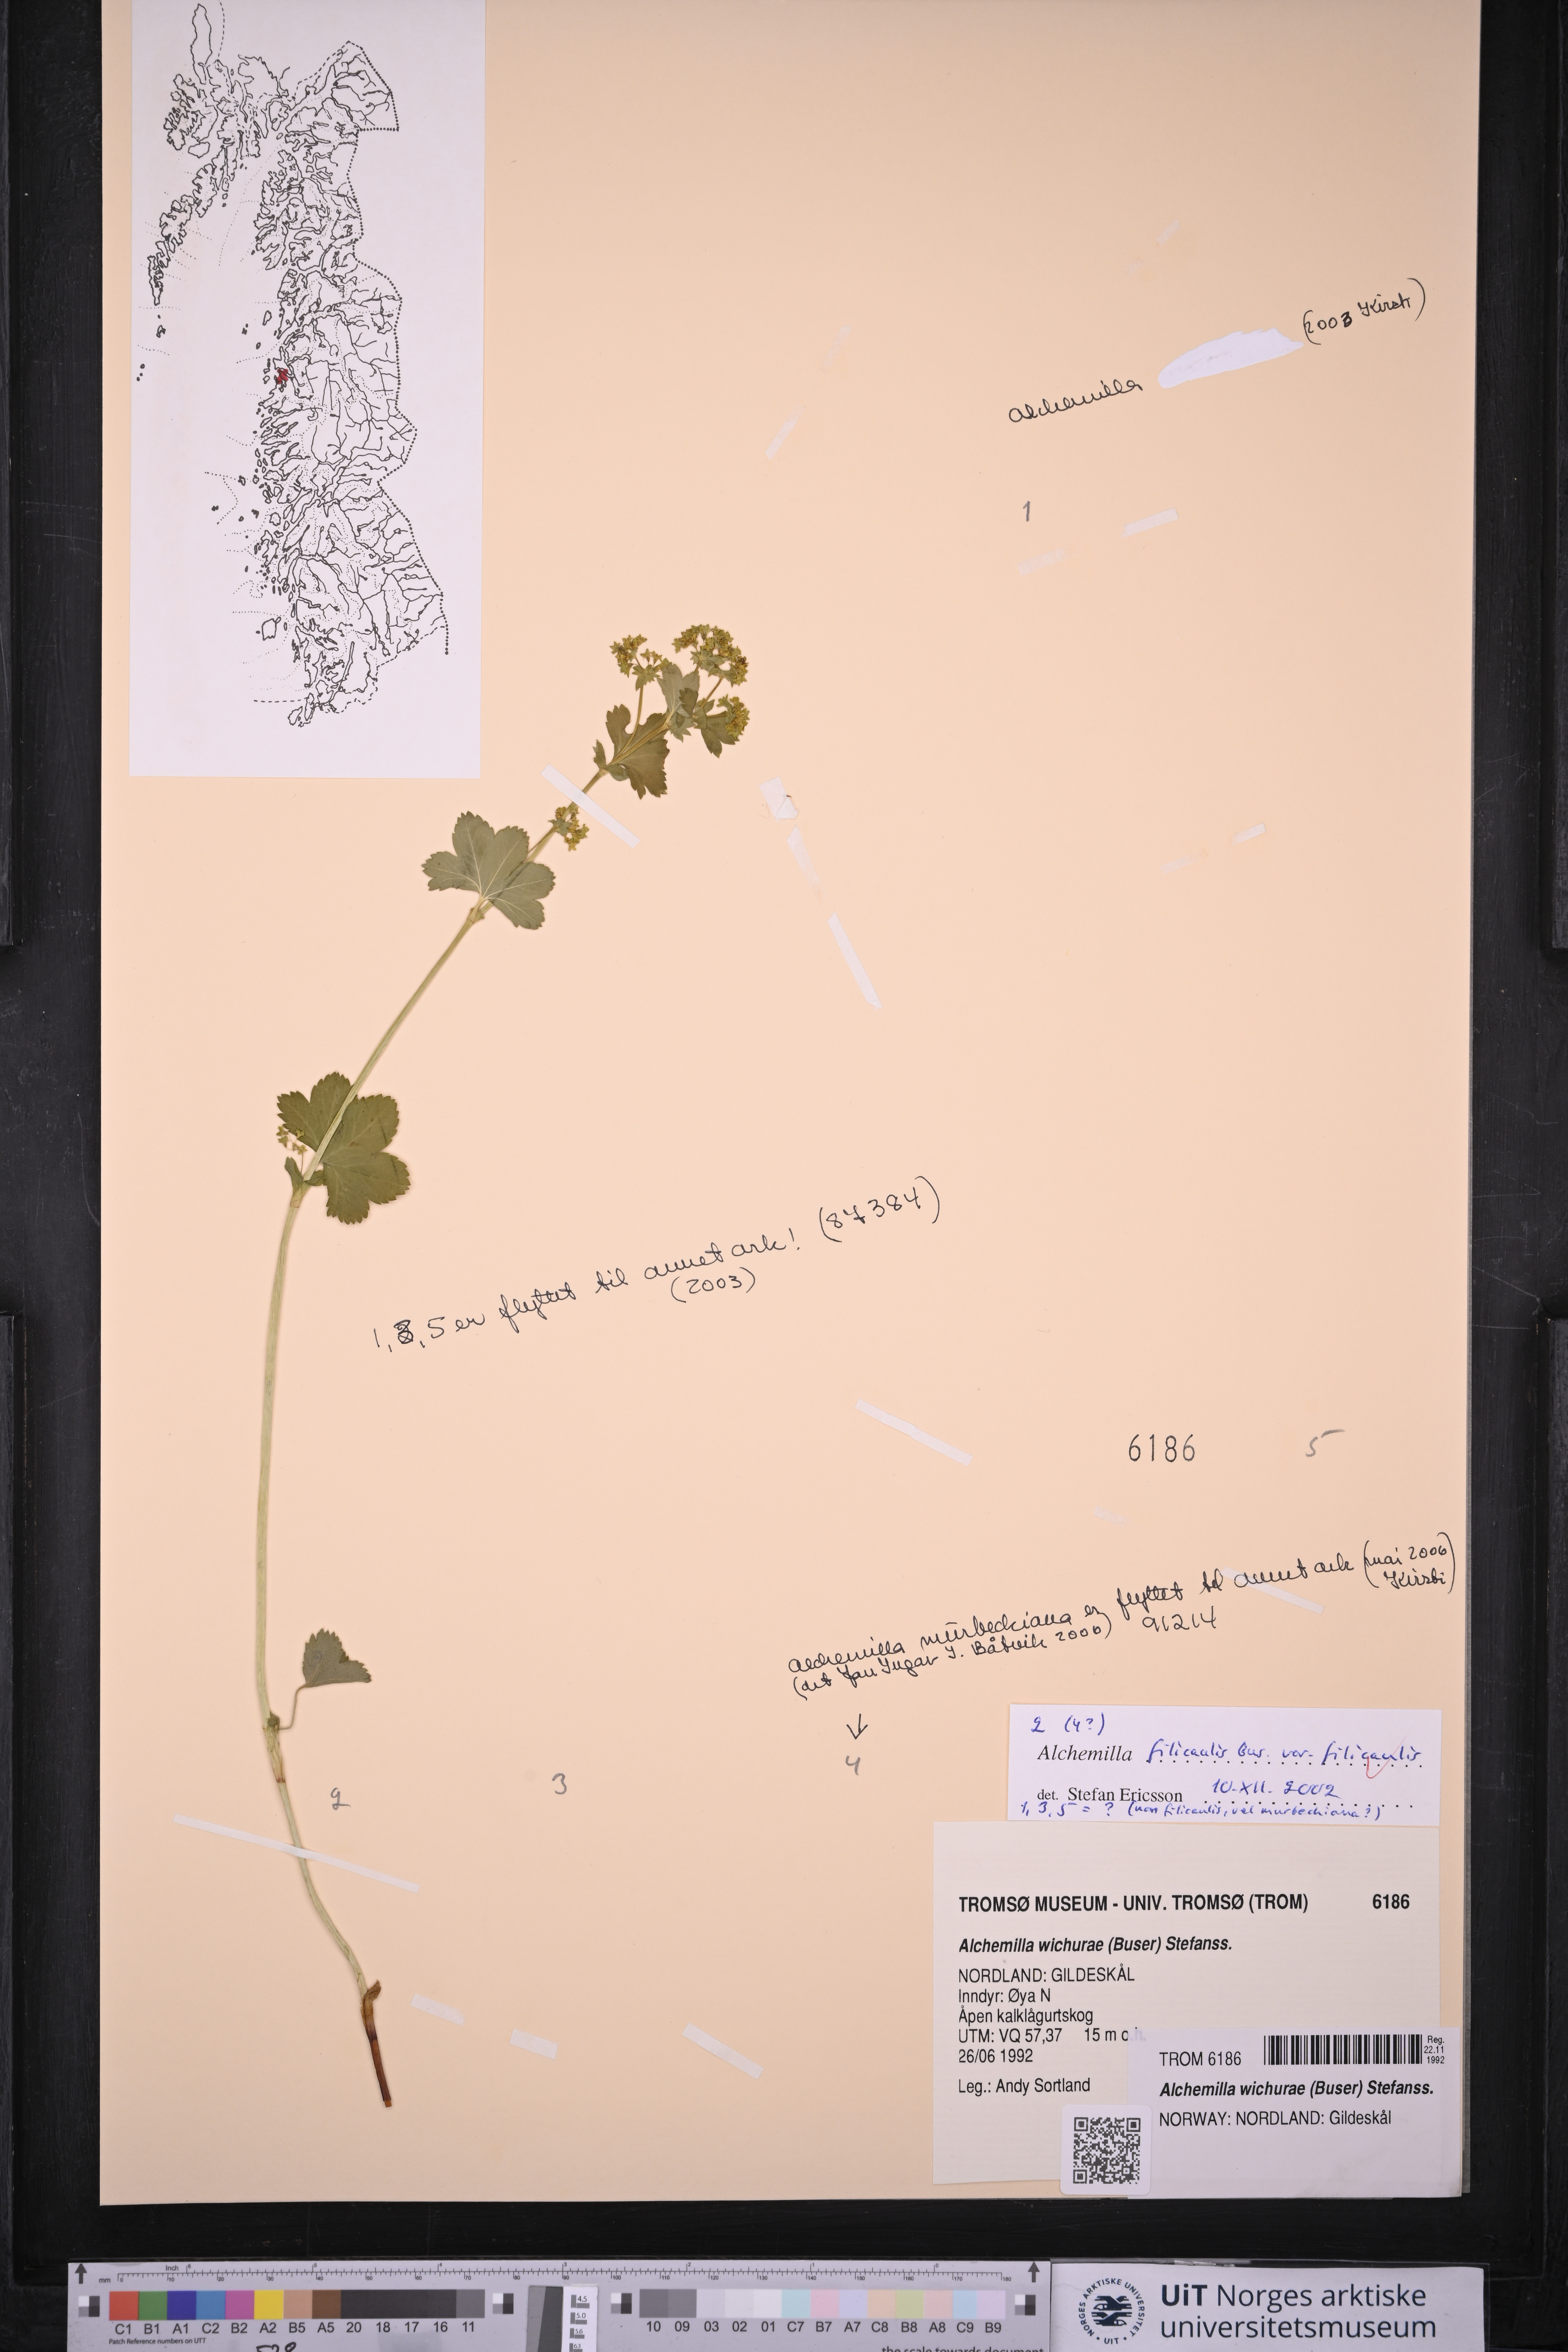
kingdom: Plantae
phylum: Tracheophyta
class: Magnoliopsida
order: Rosales
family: Rosaceae
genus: Alchemilla
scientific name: Alchemilla filicaulis
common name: Hairy lady's-mantle
